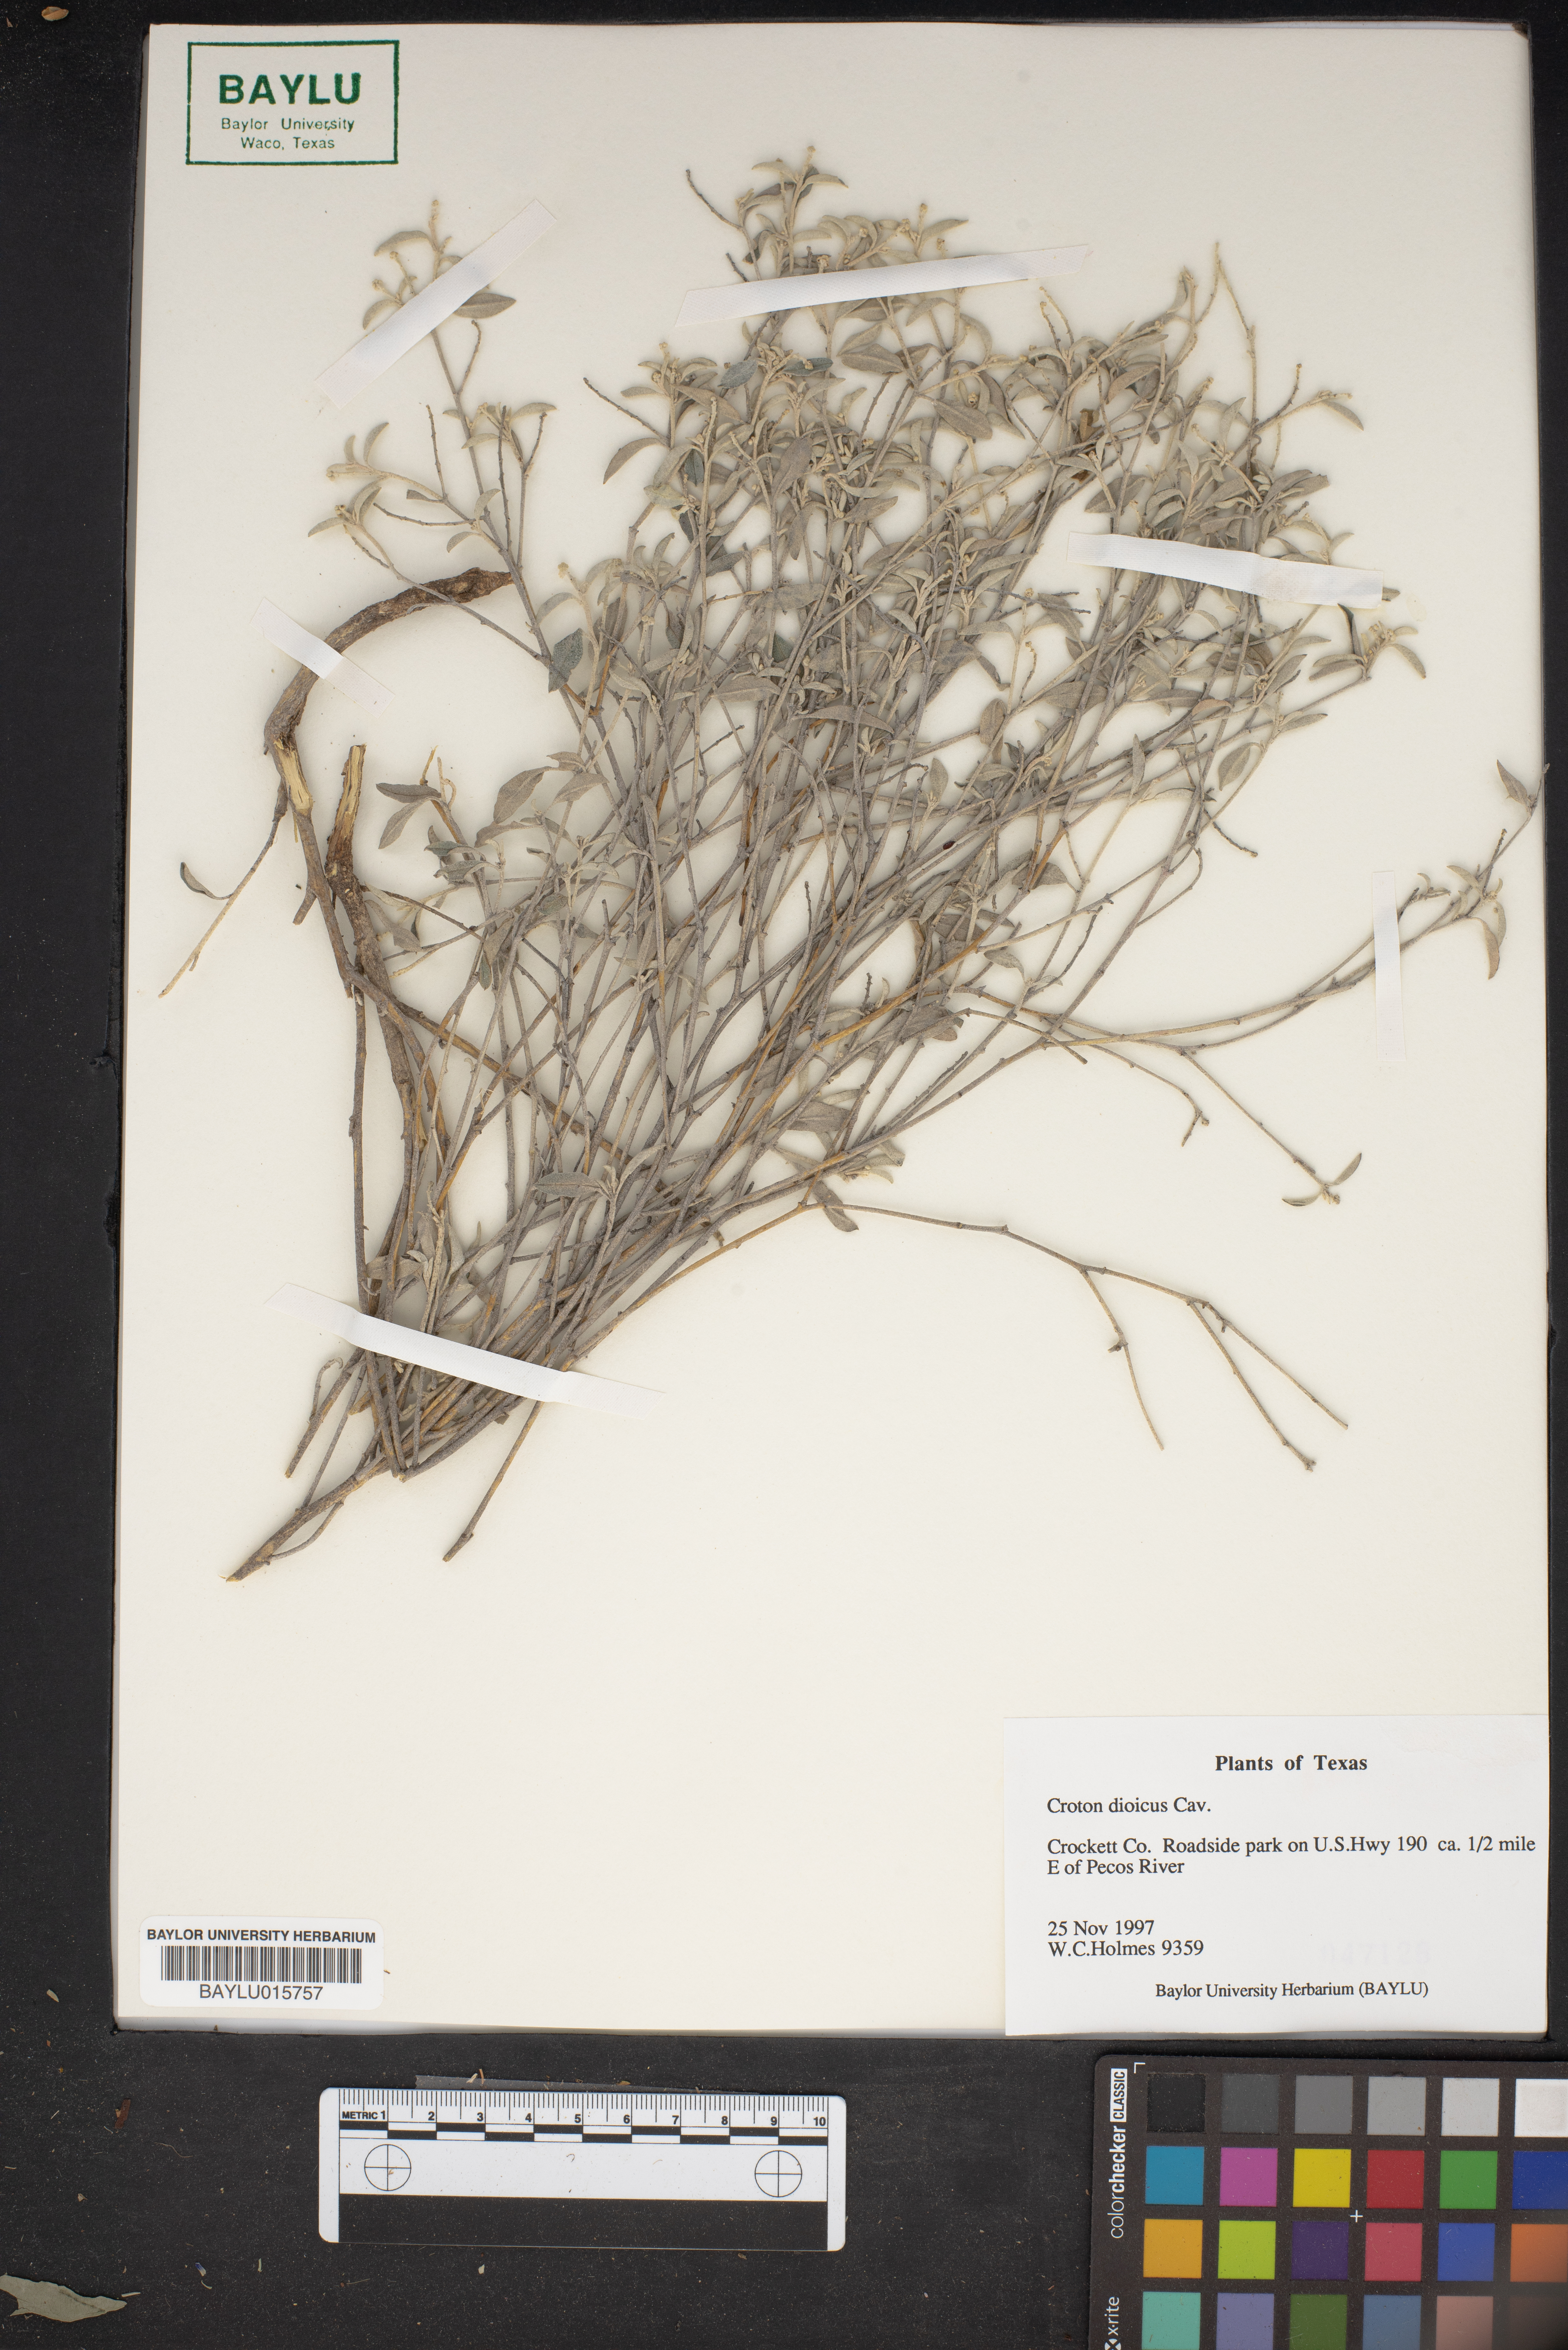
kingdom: Plantae
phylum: Tracheophyta
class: Magnoliopsida
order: Malpighiales
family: Euphorbiaceae
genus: Croton
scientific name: Croton dioicus
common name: Grassland croton
